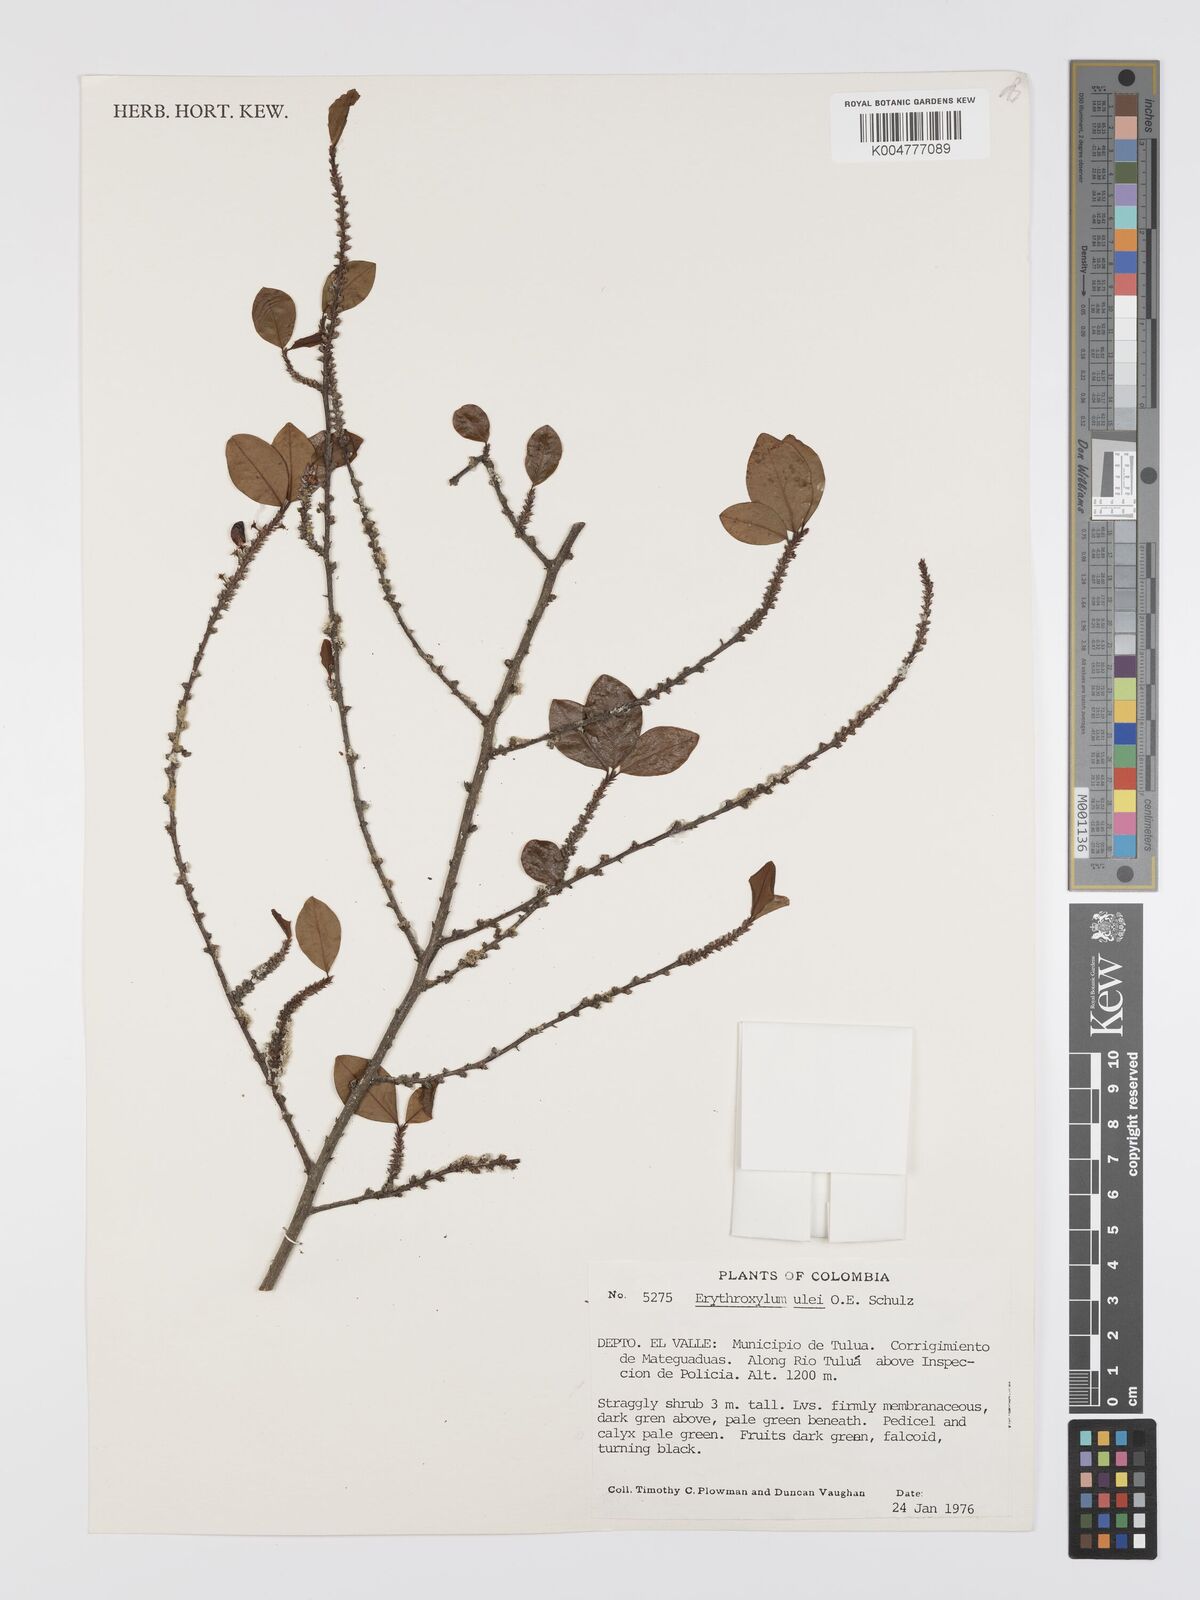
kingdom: Plantae
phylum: Tracheophyta
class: Magnoliopsida
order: Malpighiales
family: Erythroxylaceae
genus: Erythroxylum
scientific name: Erythroxylum ulei
